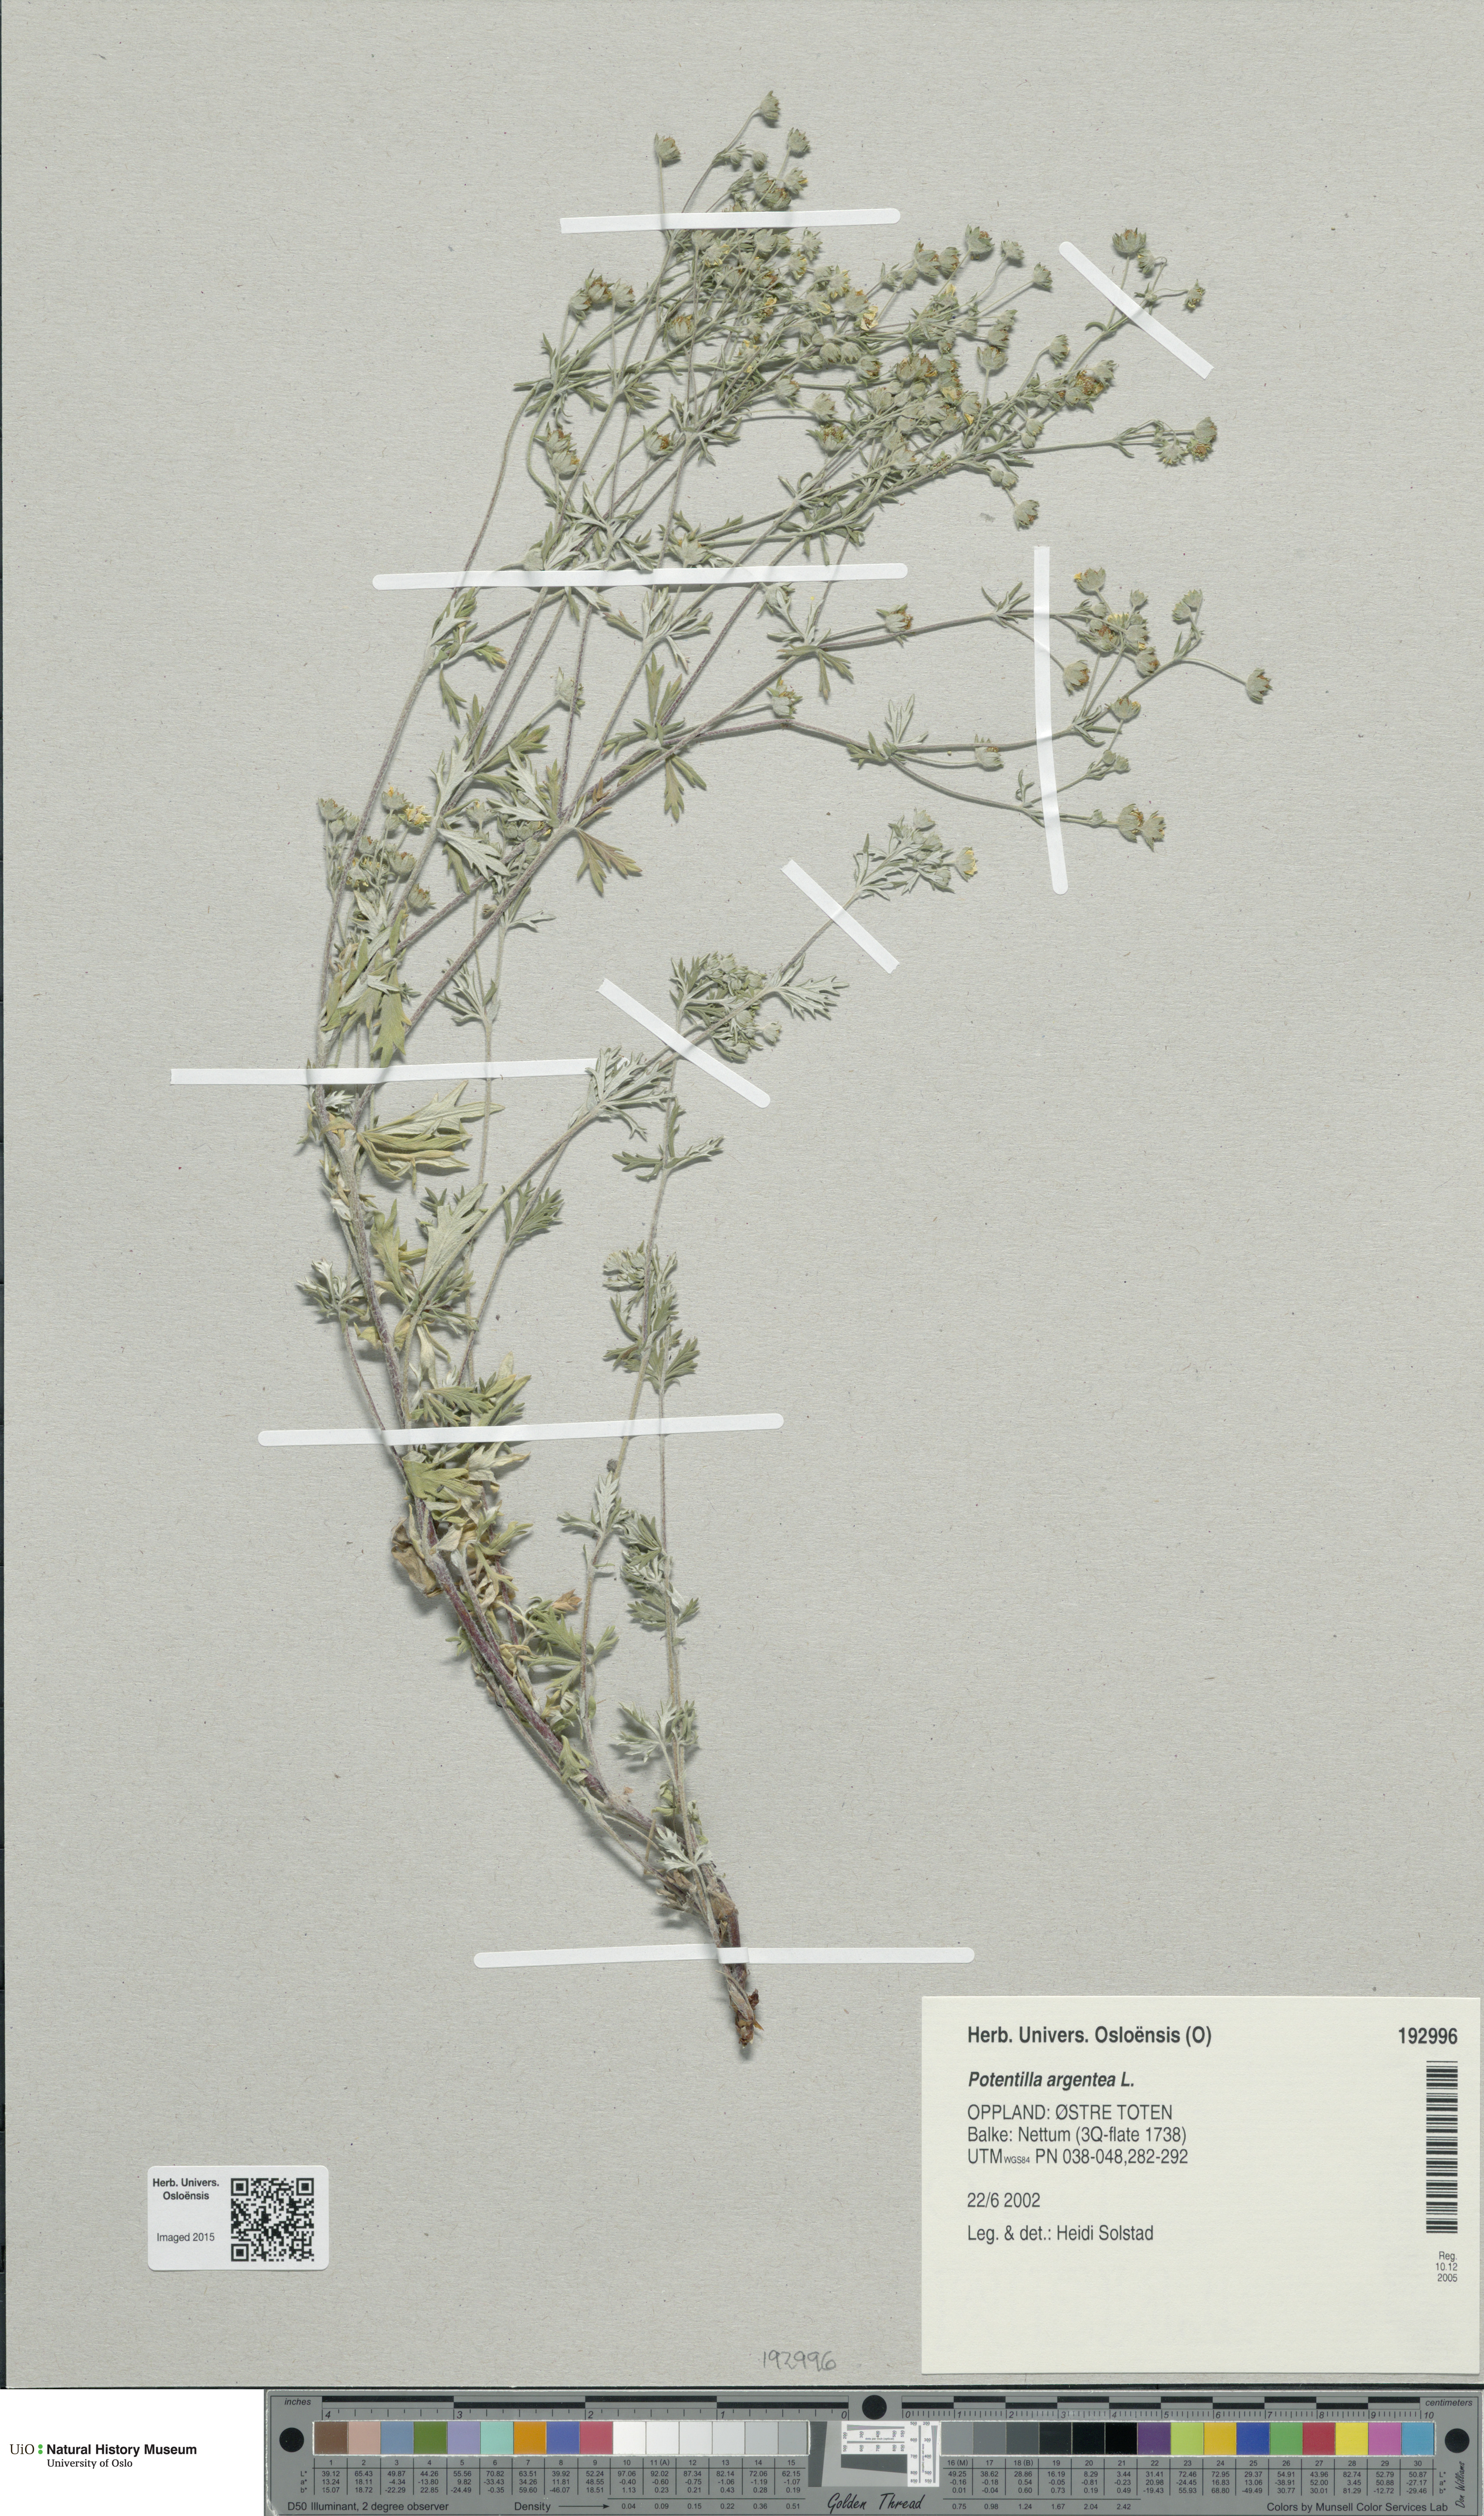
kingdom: Plantae
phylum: Tracheophyta
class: Magnoliopsida
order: Rosales
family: Rosaceae
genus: Potentilla
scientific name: Potentilla argentea
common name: Hoary cinquefoil
